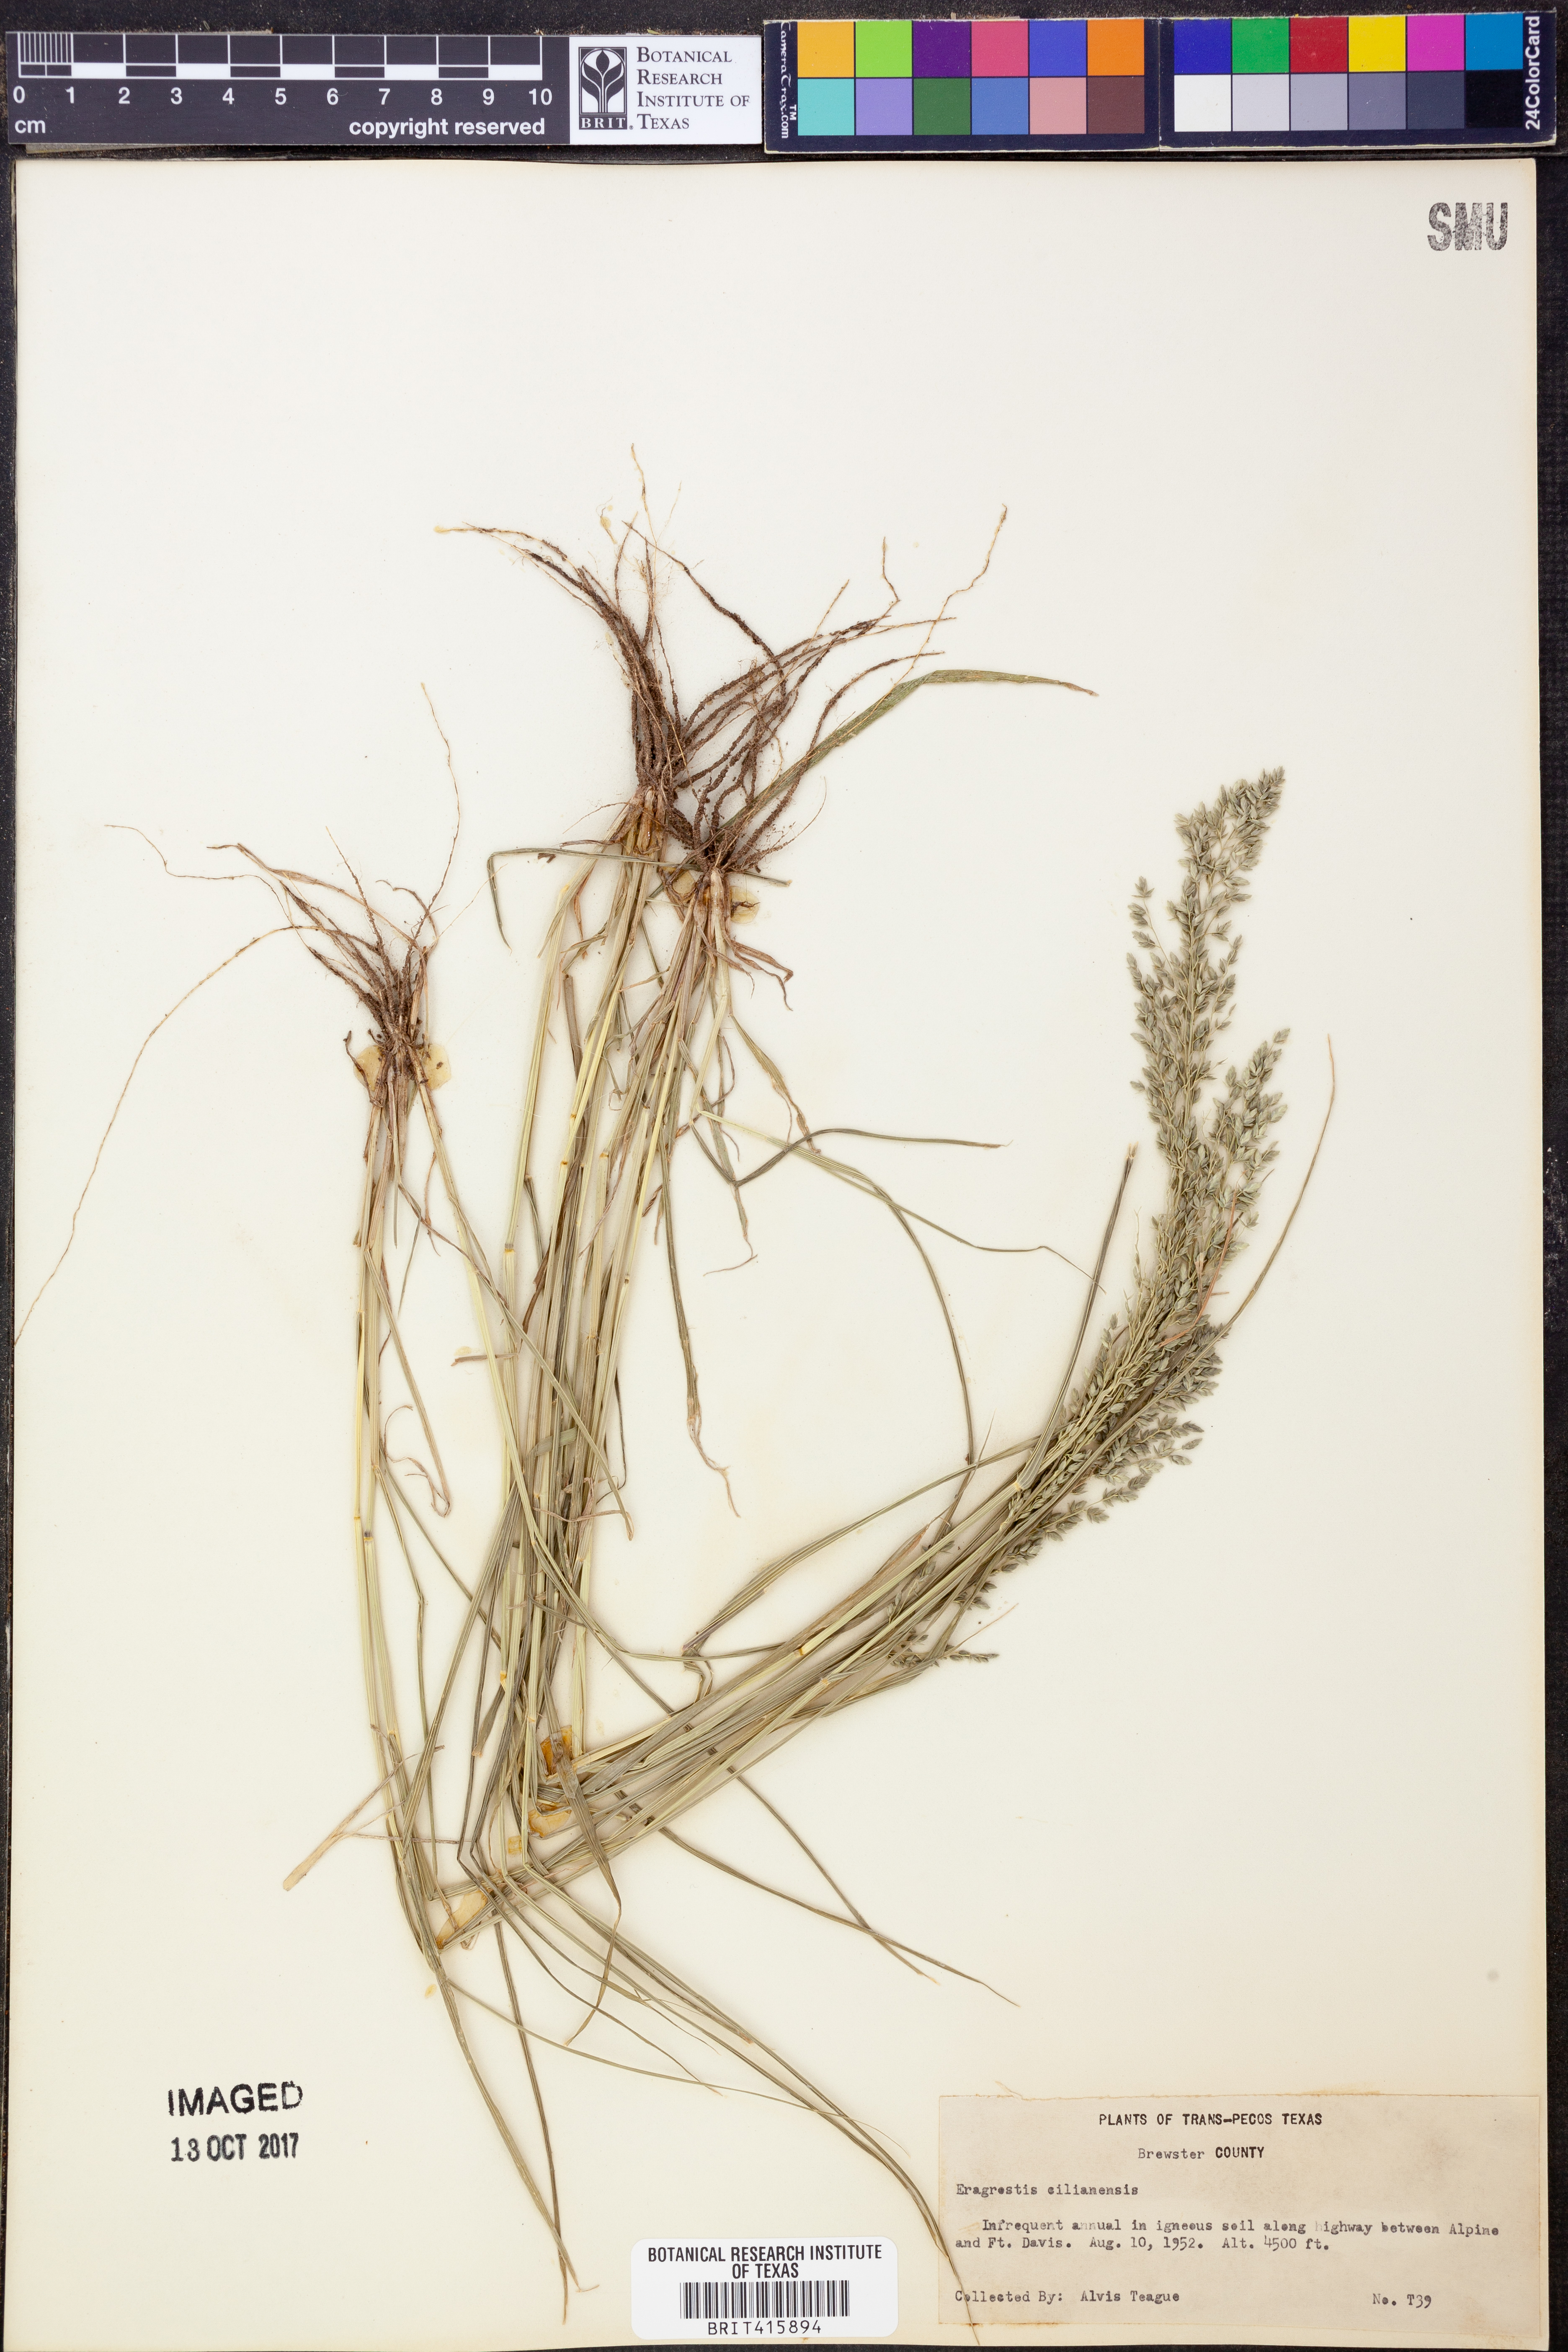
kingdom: Plantae
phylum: Tracheophyta
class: Liliopsida
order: Poales
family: Poaceae
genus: Eragrostis
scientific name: Eragrostis cilianensis
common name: Stinkgrass
